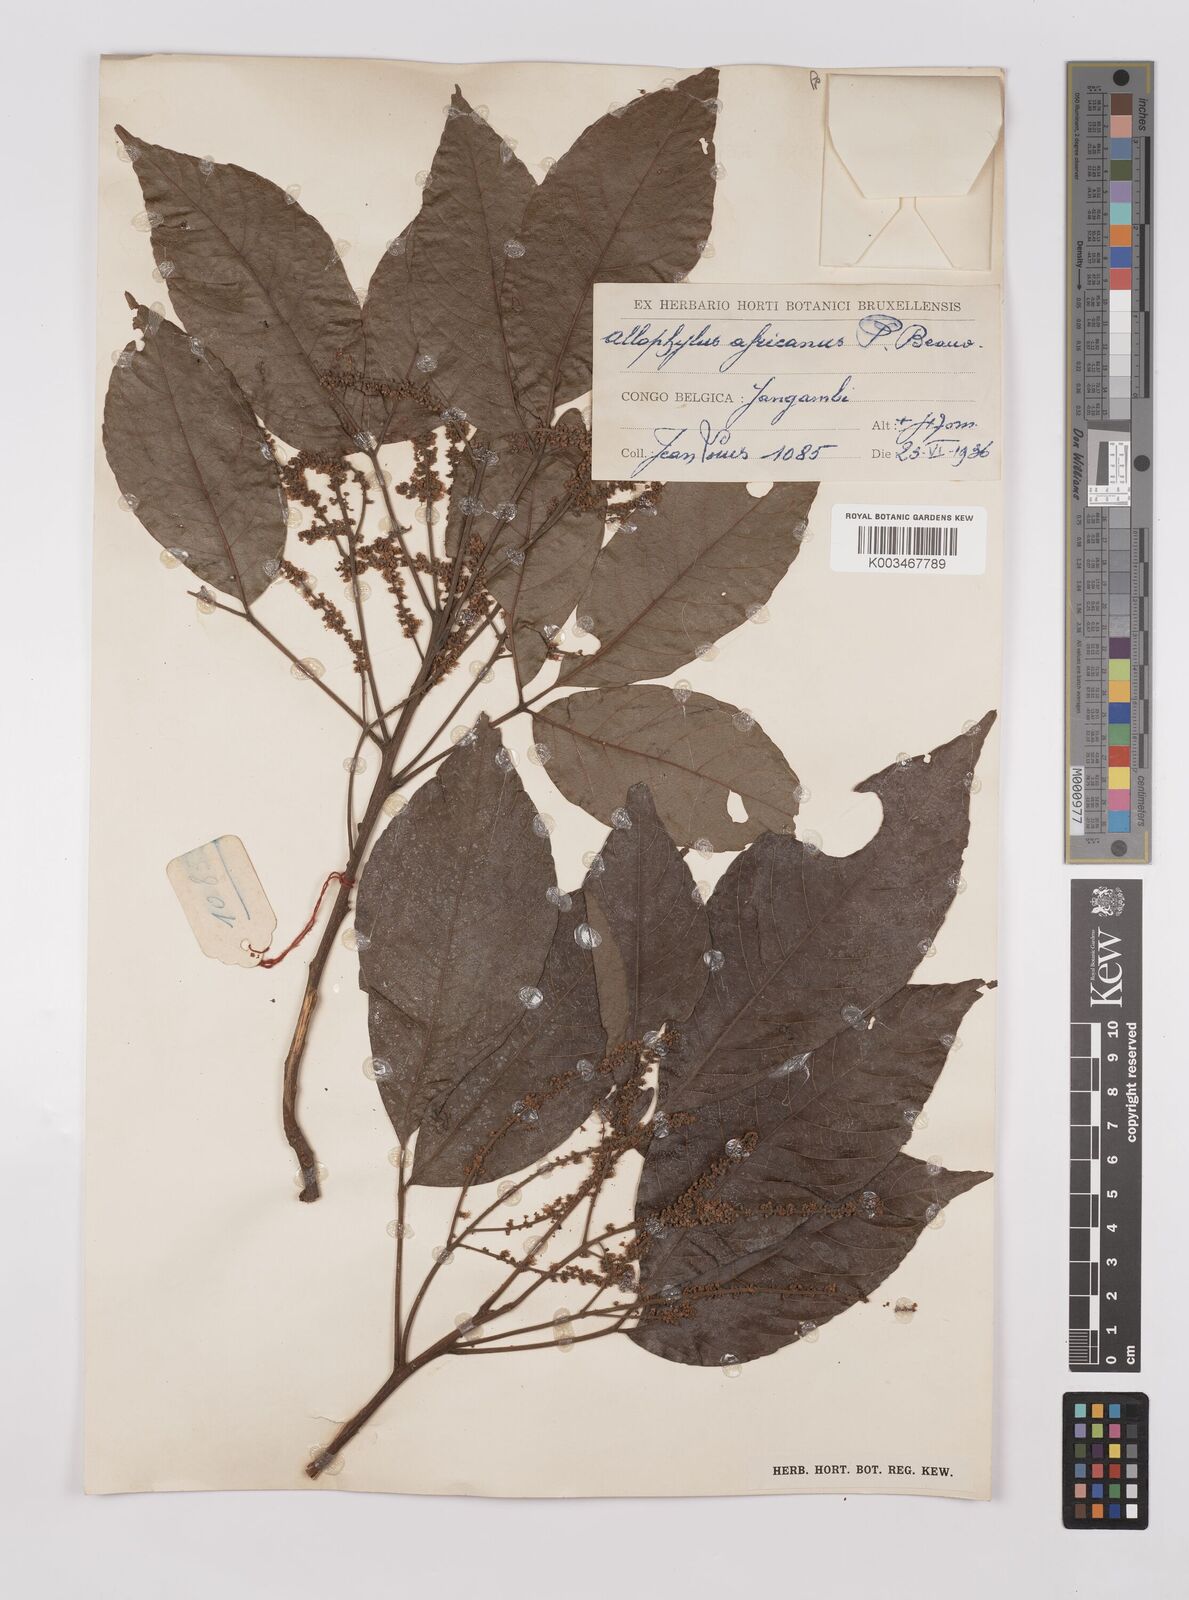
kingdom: Plantae
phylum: Tracheophyta
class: Magnoliopsida
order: Sapindales
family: Sapindaceae
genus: Allophylus
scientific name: Allophylus africanus
